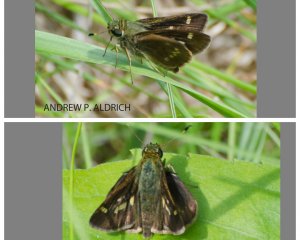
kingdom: Animalia
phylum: Arthropoda
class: Insecta
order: Lepidoptera
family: Hesperiidae
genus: Vernia
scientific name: Vernia verna
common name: Little Glassywing
